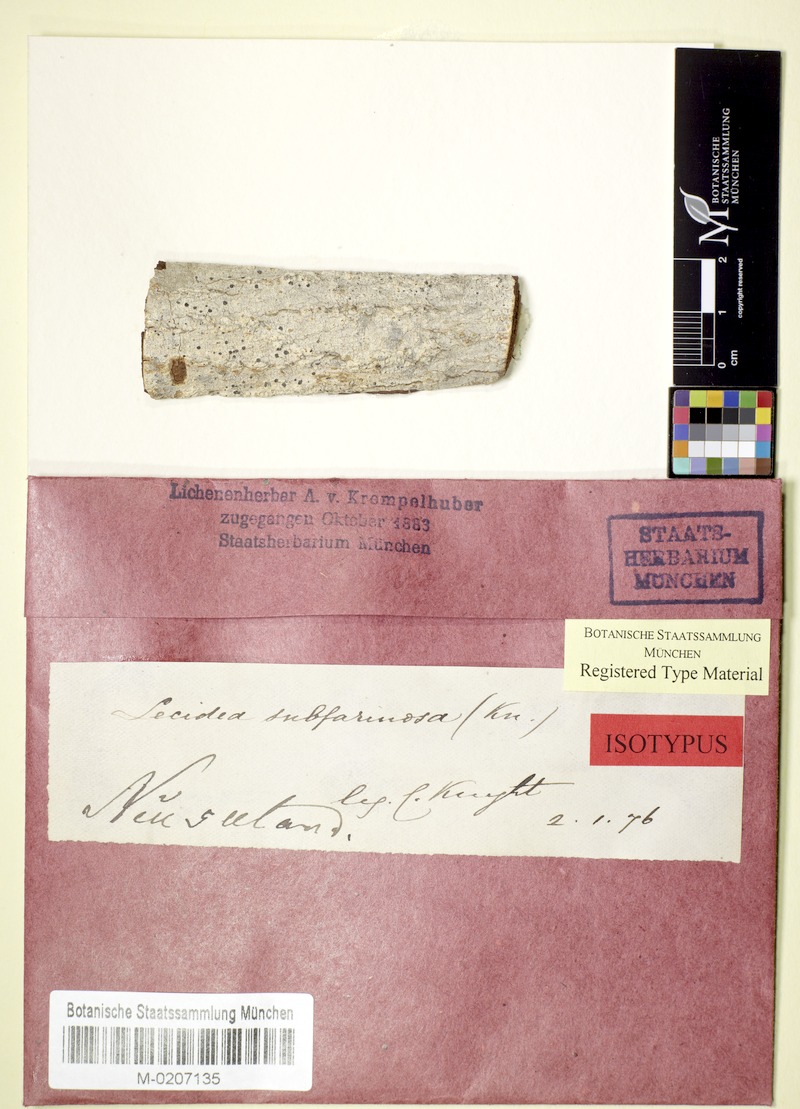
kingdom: Fungi
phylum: Ascomycota
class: Arthoniomycetes
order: Arthoniales
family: Roccellaceae
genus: Lecanactis
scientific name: Lecanactis subfarinosa
